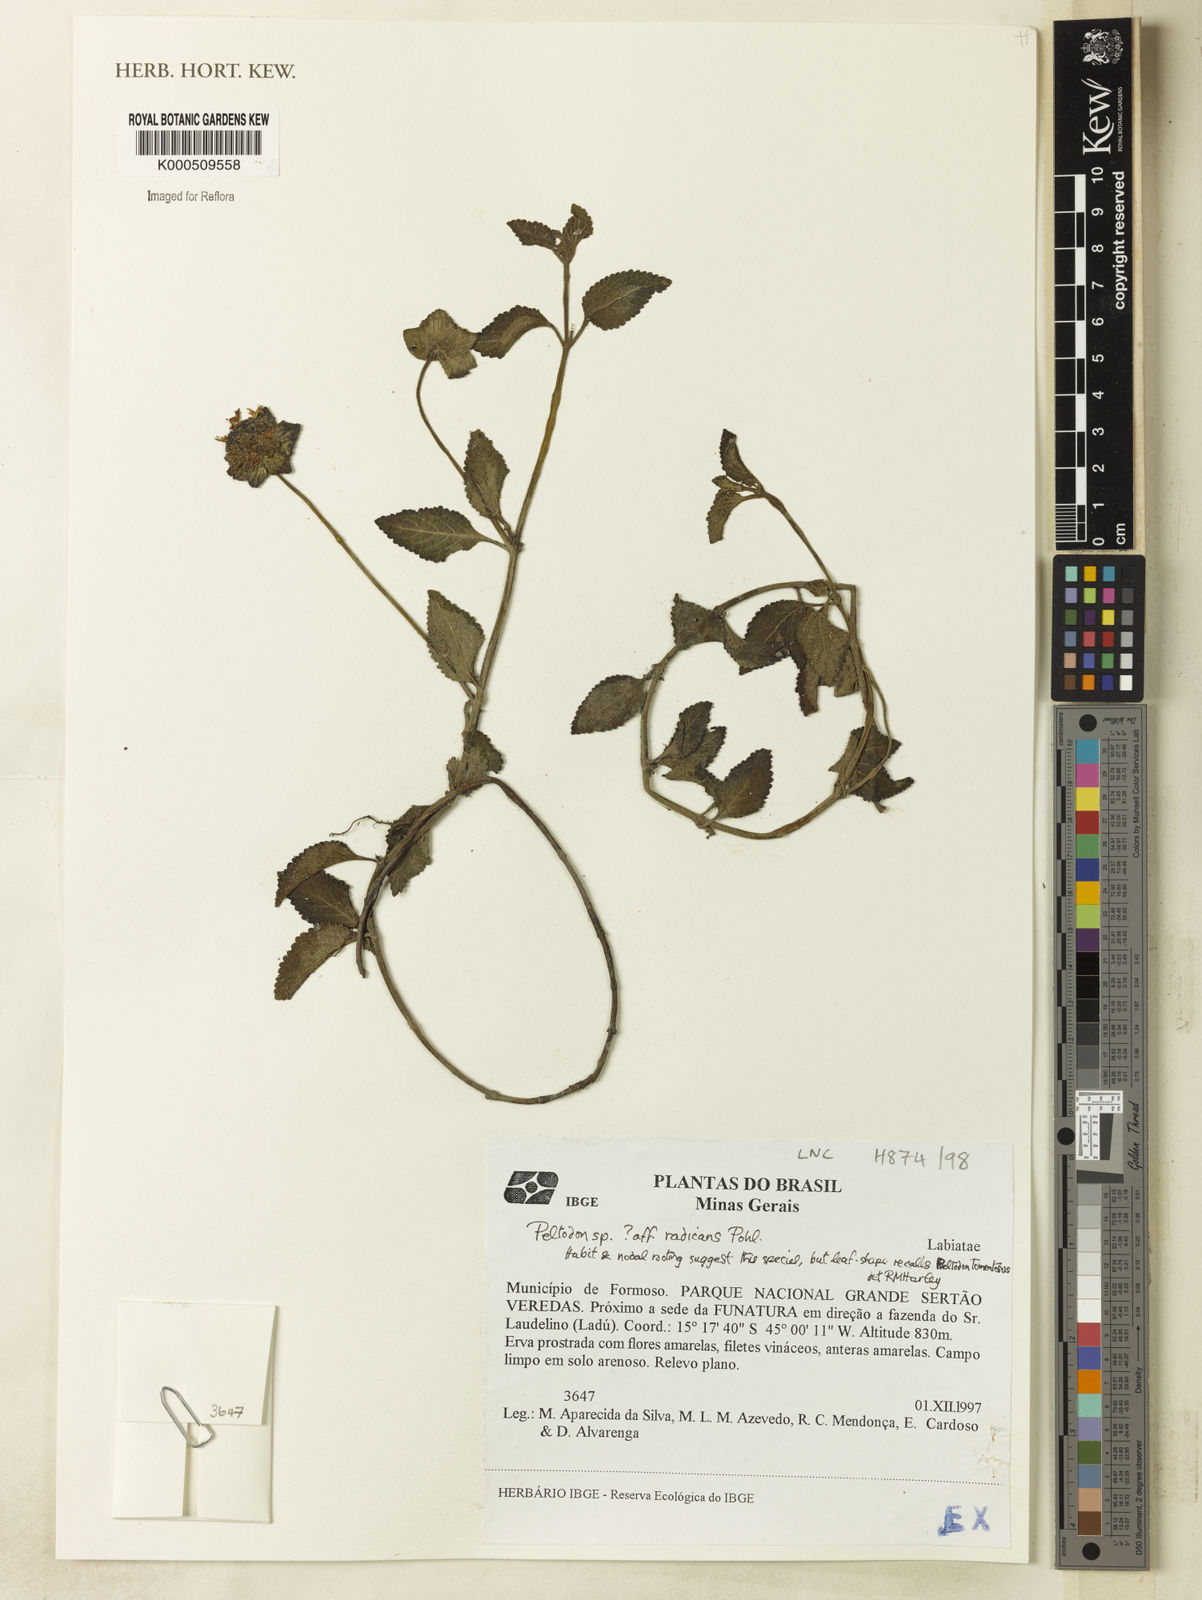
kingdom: Plantae
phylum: Tracheophyta
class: Magnoliopsida
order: Lamiales
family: Lamiaceae
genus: Hyptis
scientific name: Hyptis radicans
